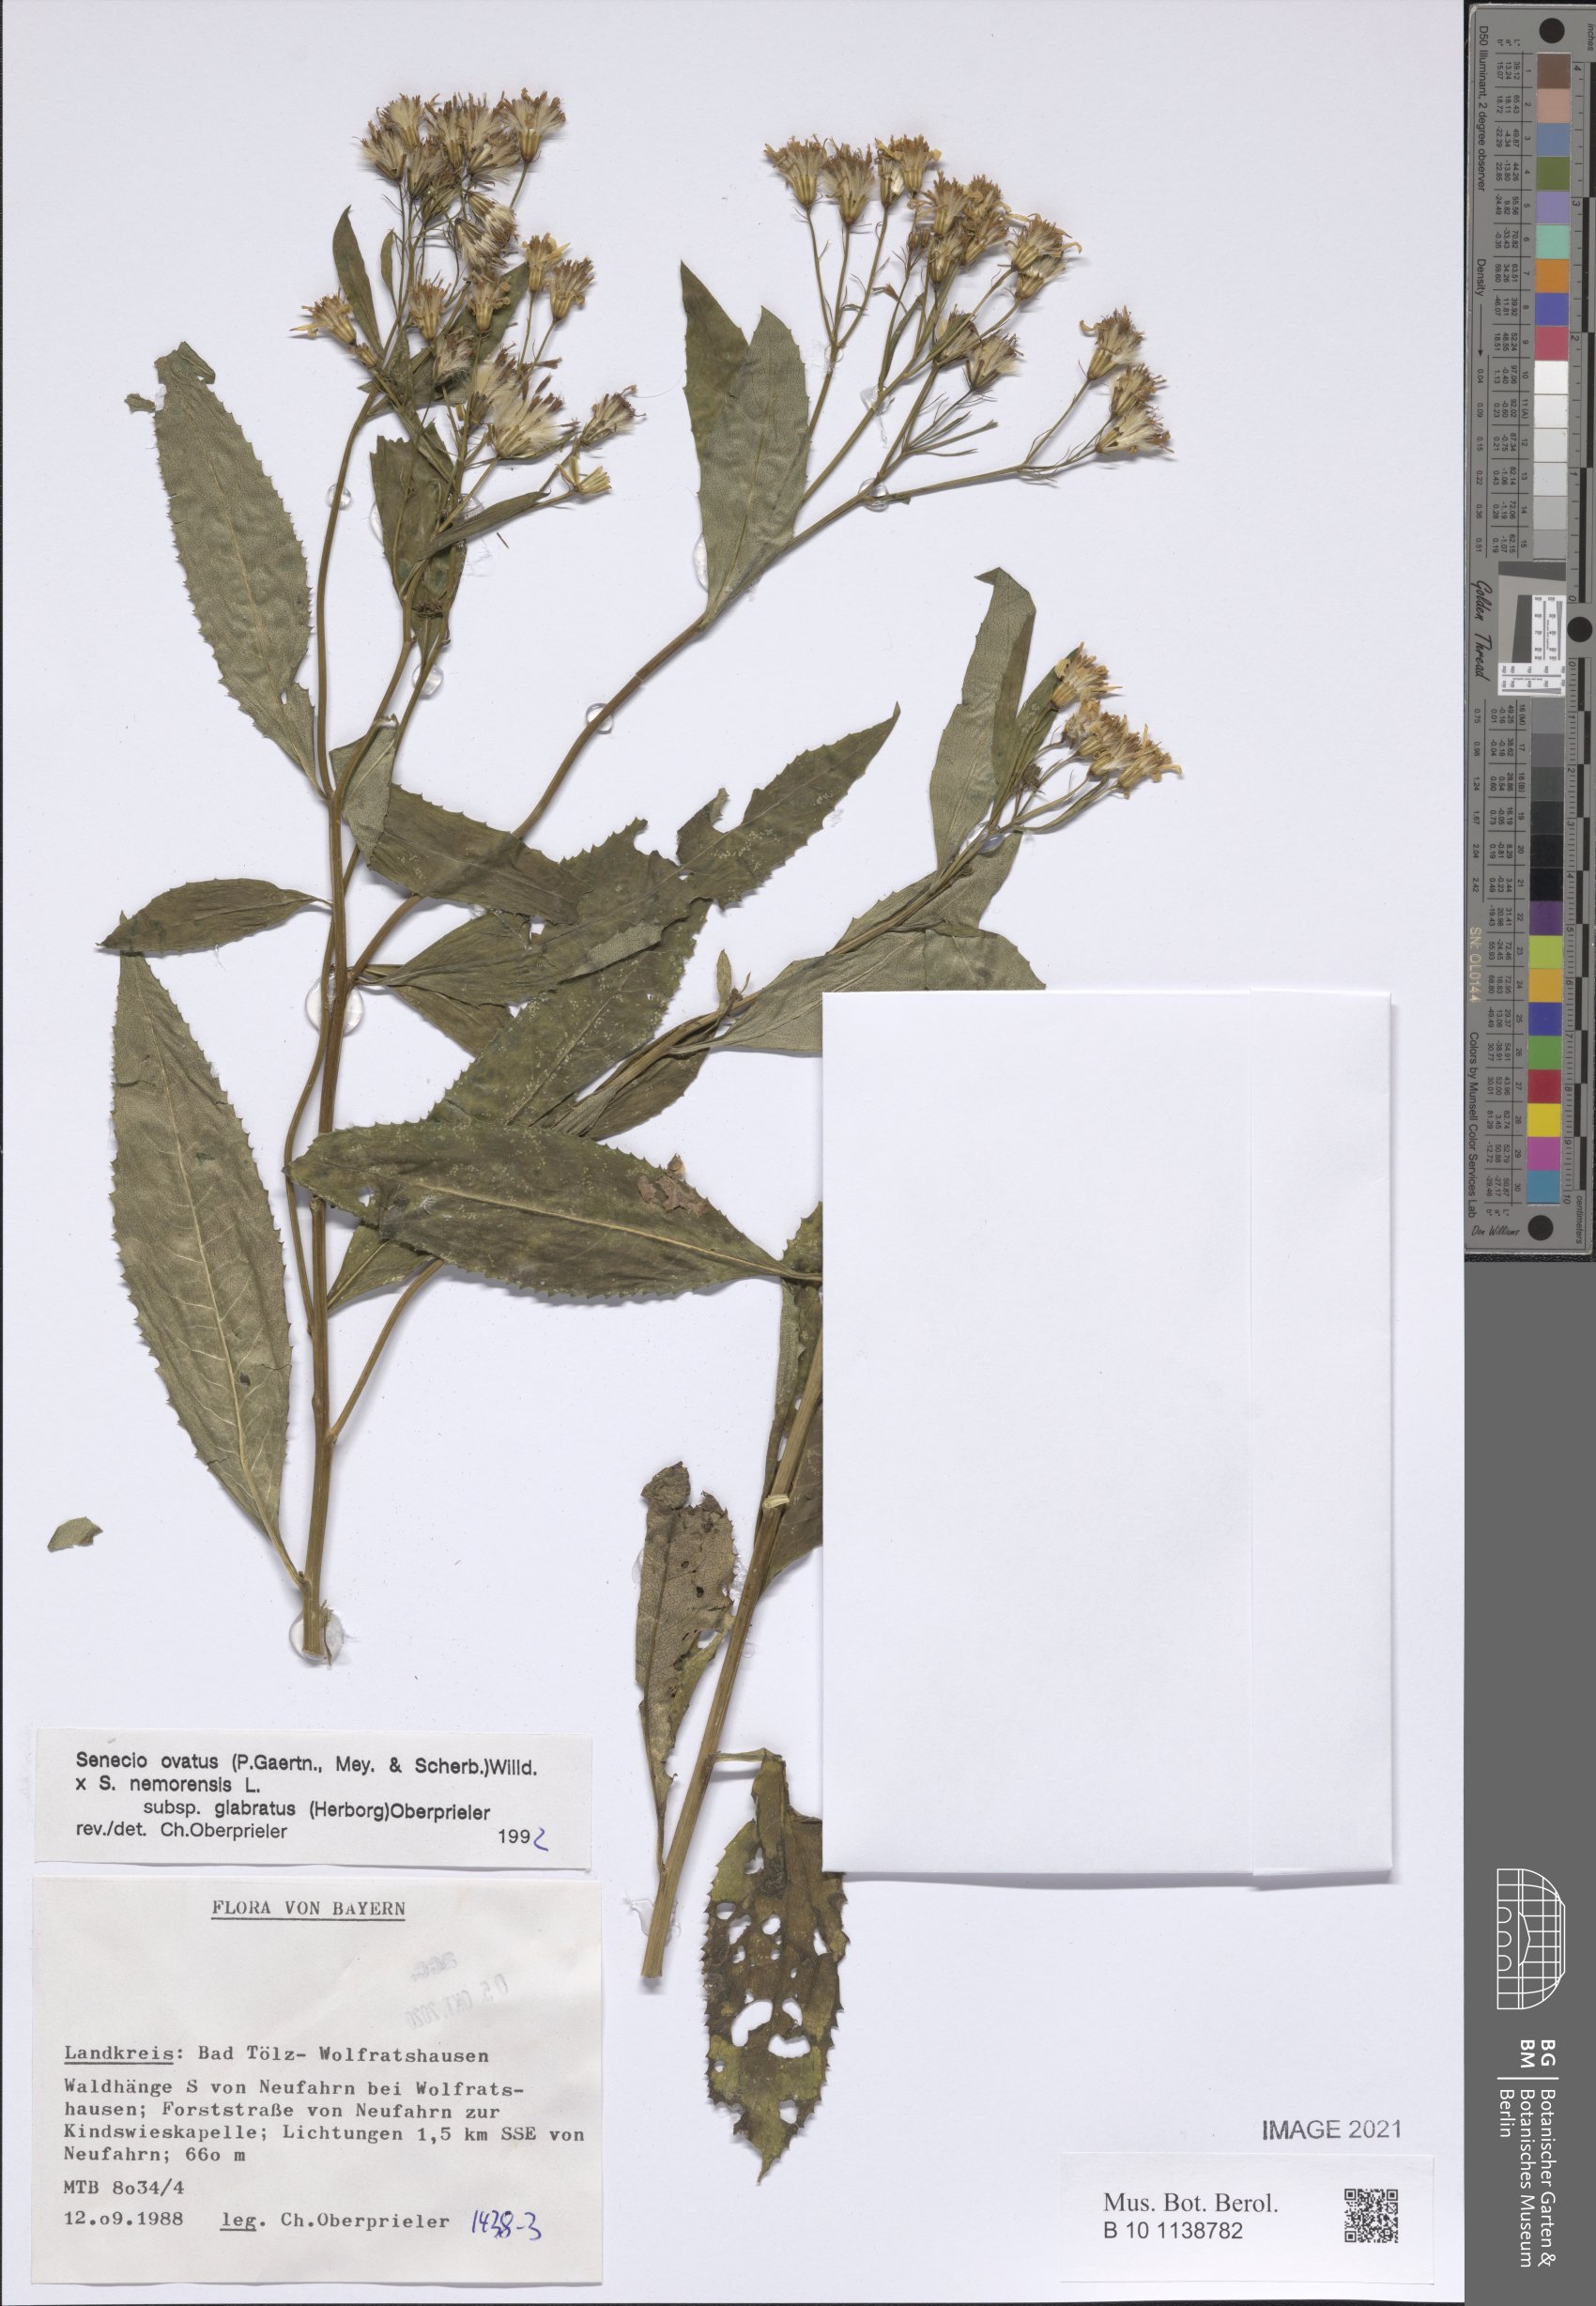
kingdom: Plantae
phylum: Tracheophyta
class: Magnoliopsida
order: Asterales
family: Asteraceae
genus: Senecio
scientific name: Senecio ovatus
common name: Wood ragwort
